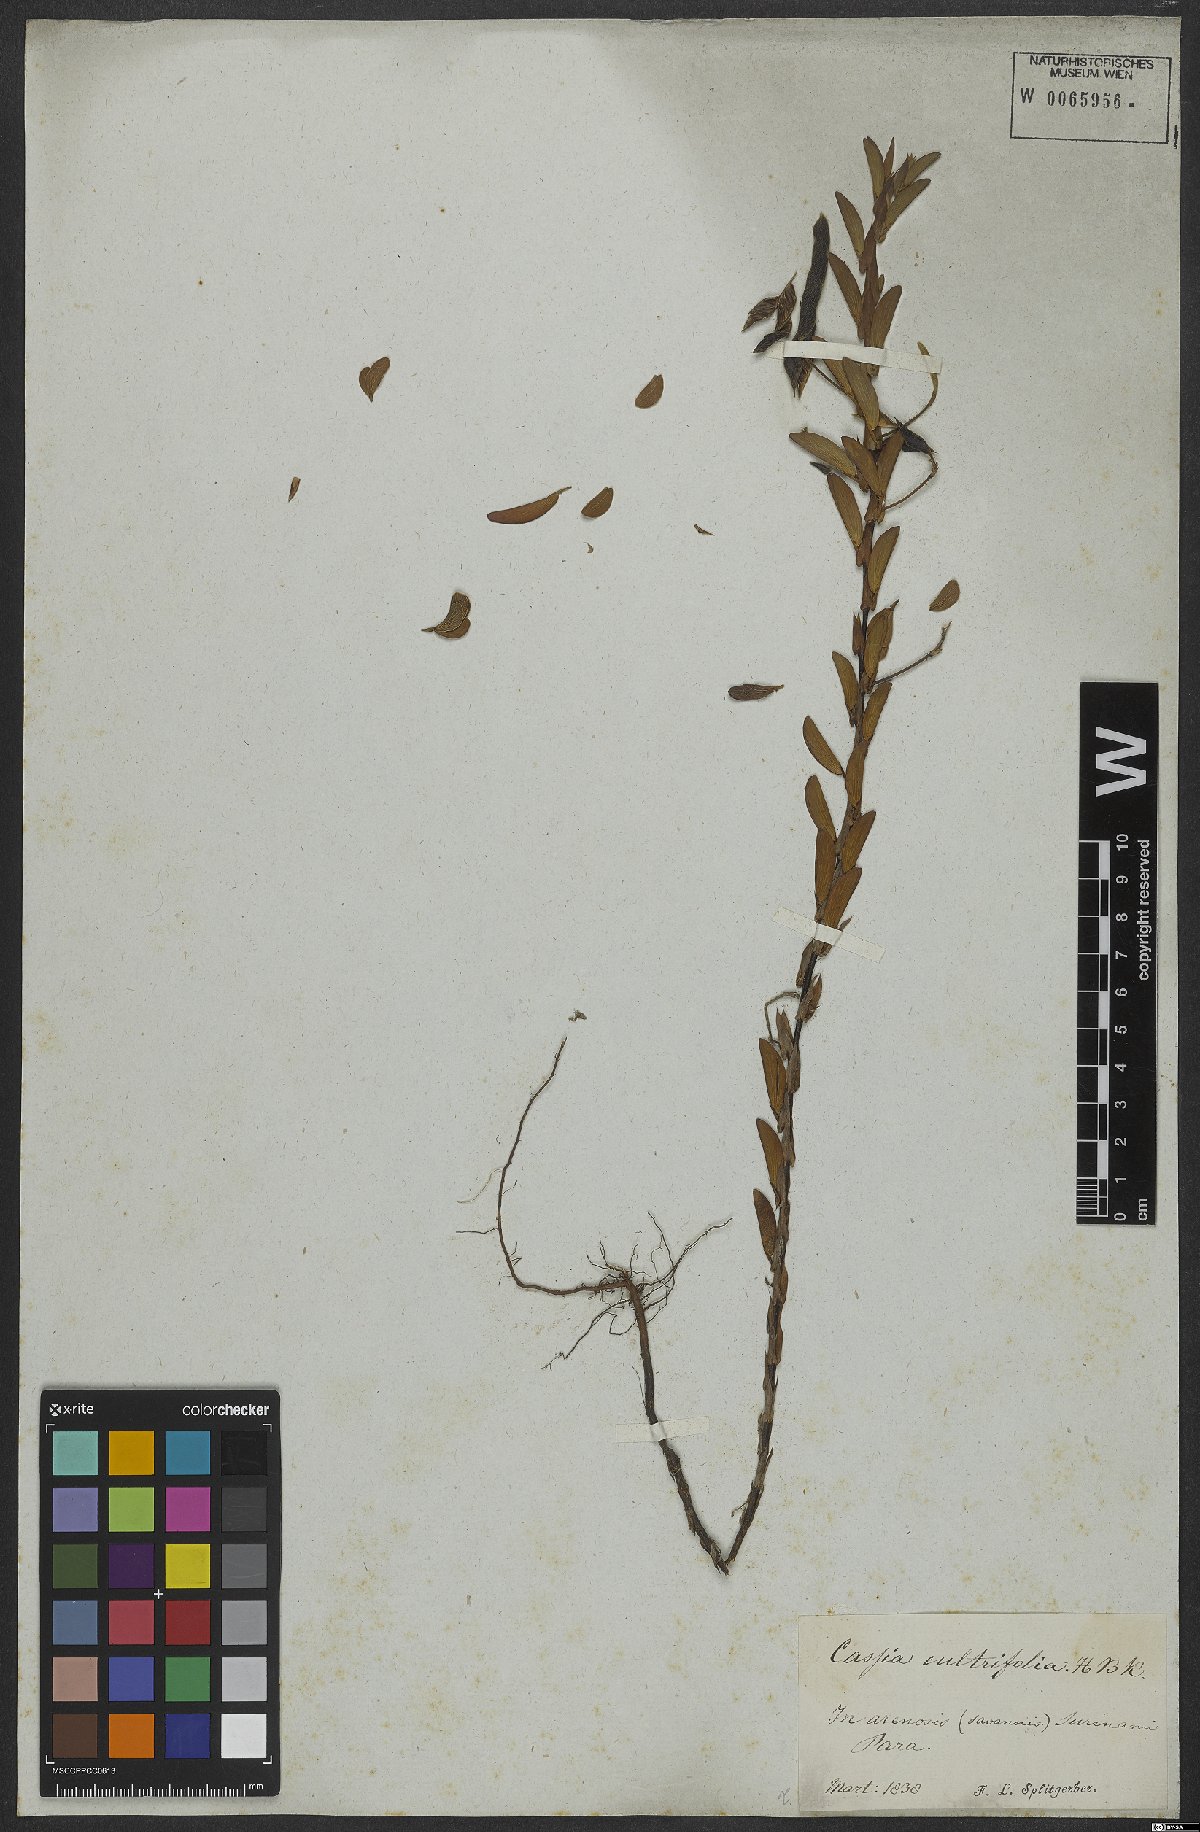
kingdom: Plantae
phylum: Tracheophyta
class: Magnoliopsida
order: Fabales
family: Fabaceae
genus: Chamaecrista
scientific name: Chamaecrista cultrifolia
